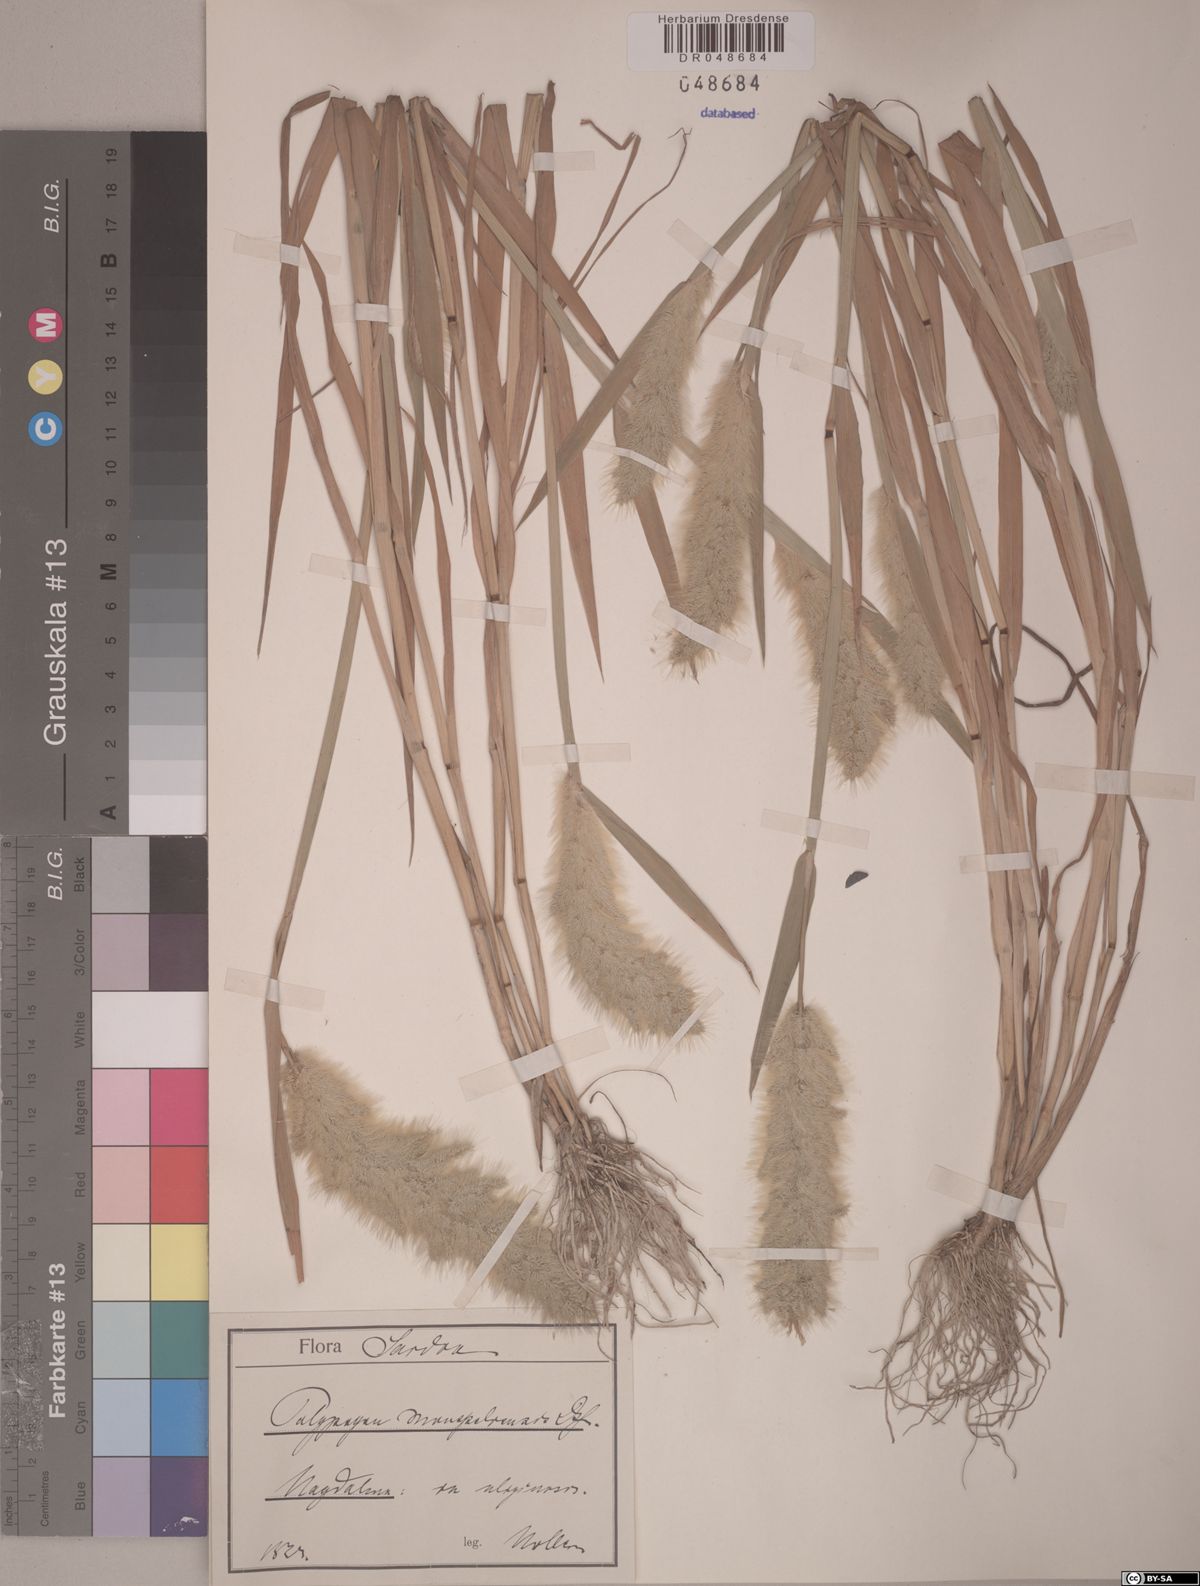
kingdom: Plantae
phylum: Tracheophyta
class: Liliopsida
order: Poales
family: Poaceae
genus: Polypogon
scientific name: Polypogon monspeliensis
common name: Annual rabbitsfoot grass
